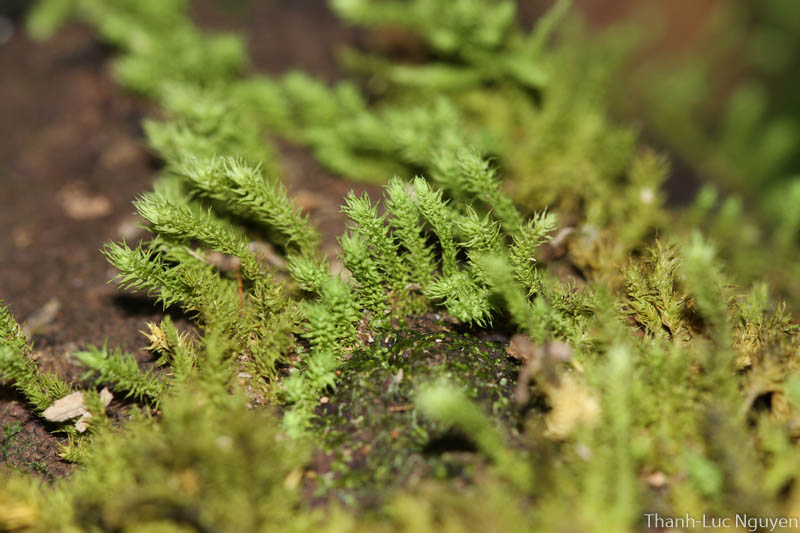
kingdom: Plantae
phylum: Bryophyta
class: Bryopsida
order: Hypnales
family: Meteoriaceae
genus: Trachypus
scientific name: Trachypus bicolor
